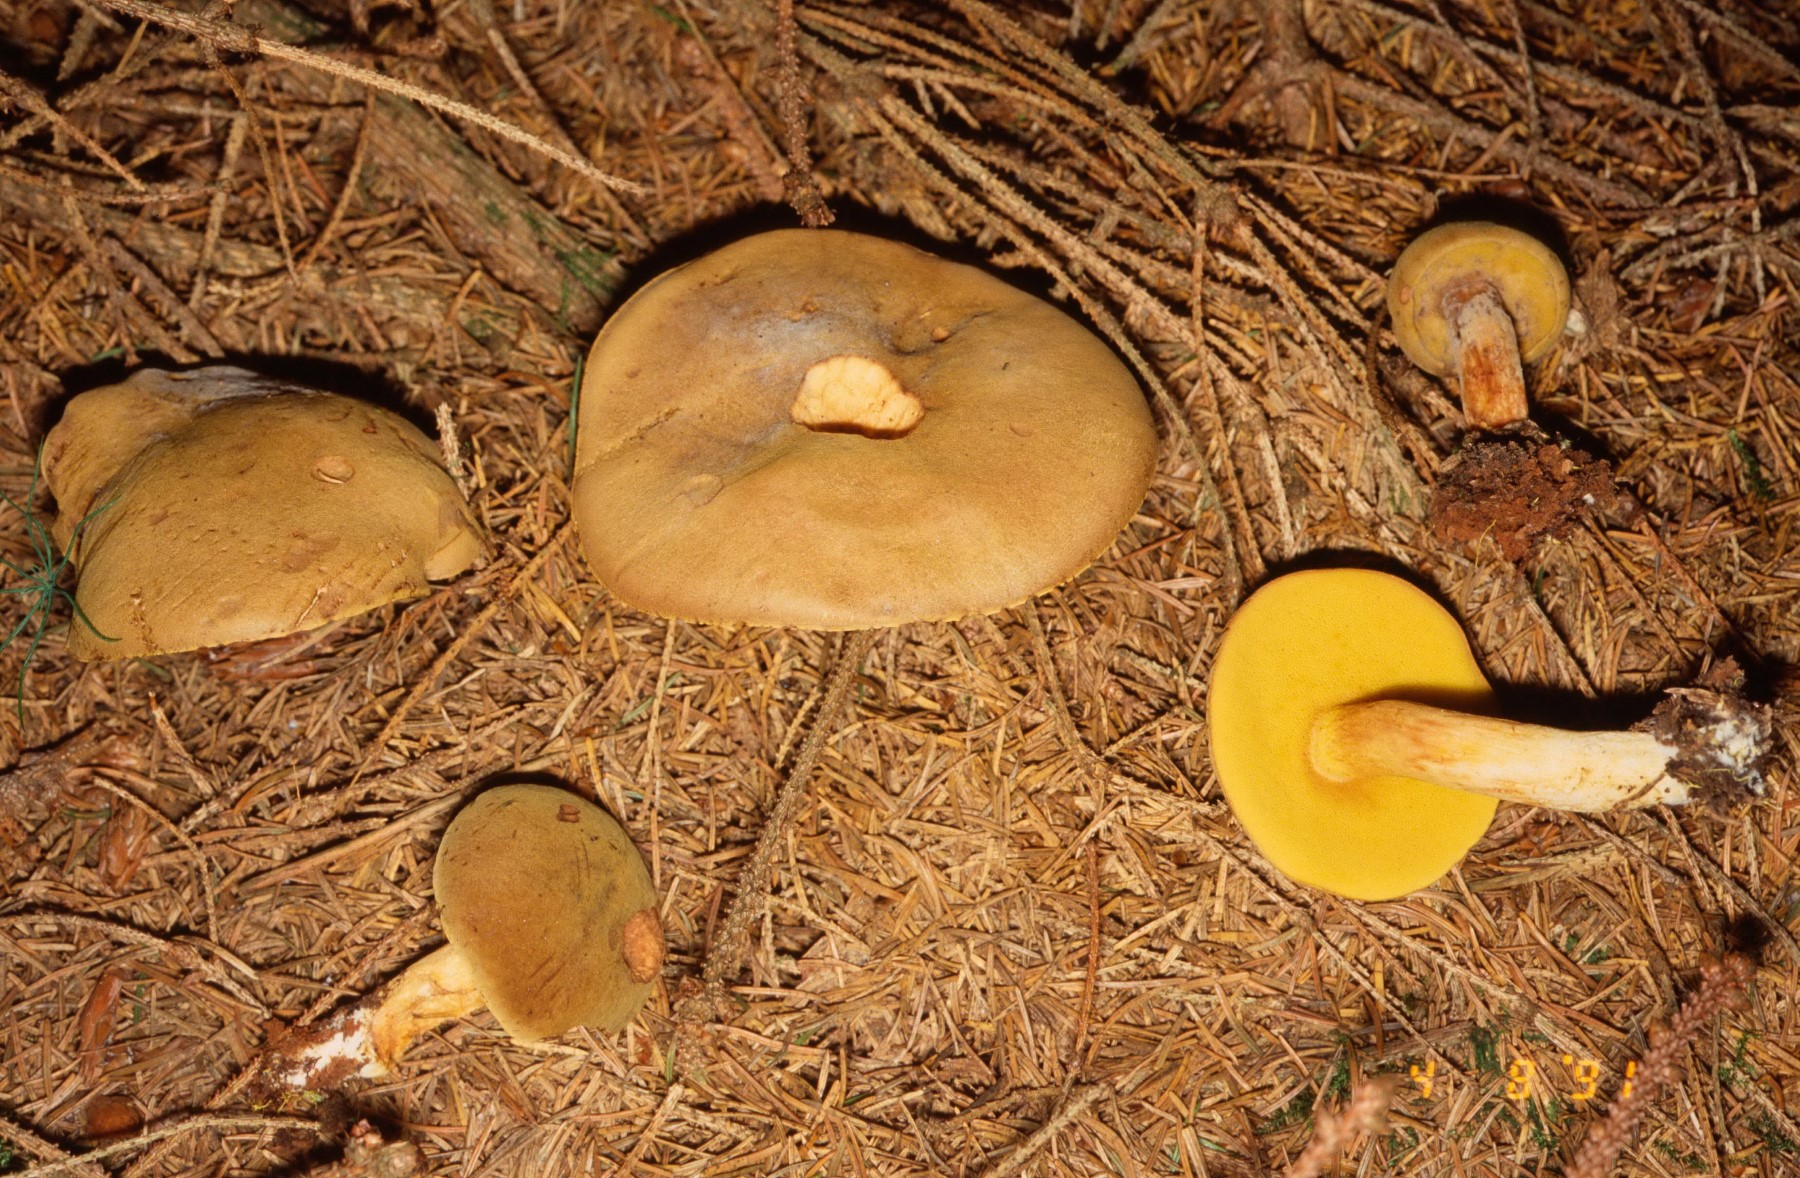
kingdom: Fungi
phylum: Basidiomycota
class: Agaricomycetes
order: Boletales
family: Boletaceae
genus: Xerocomus
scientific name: Xerocomus ferrugineus
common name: vaskeskinds-rørhat
